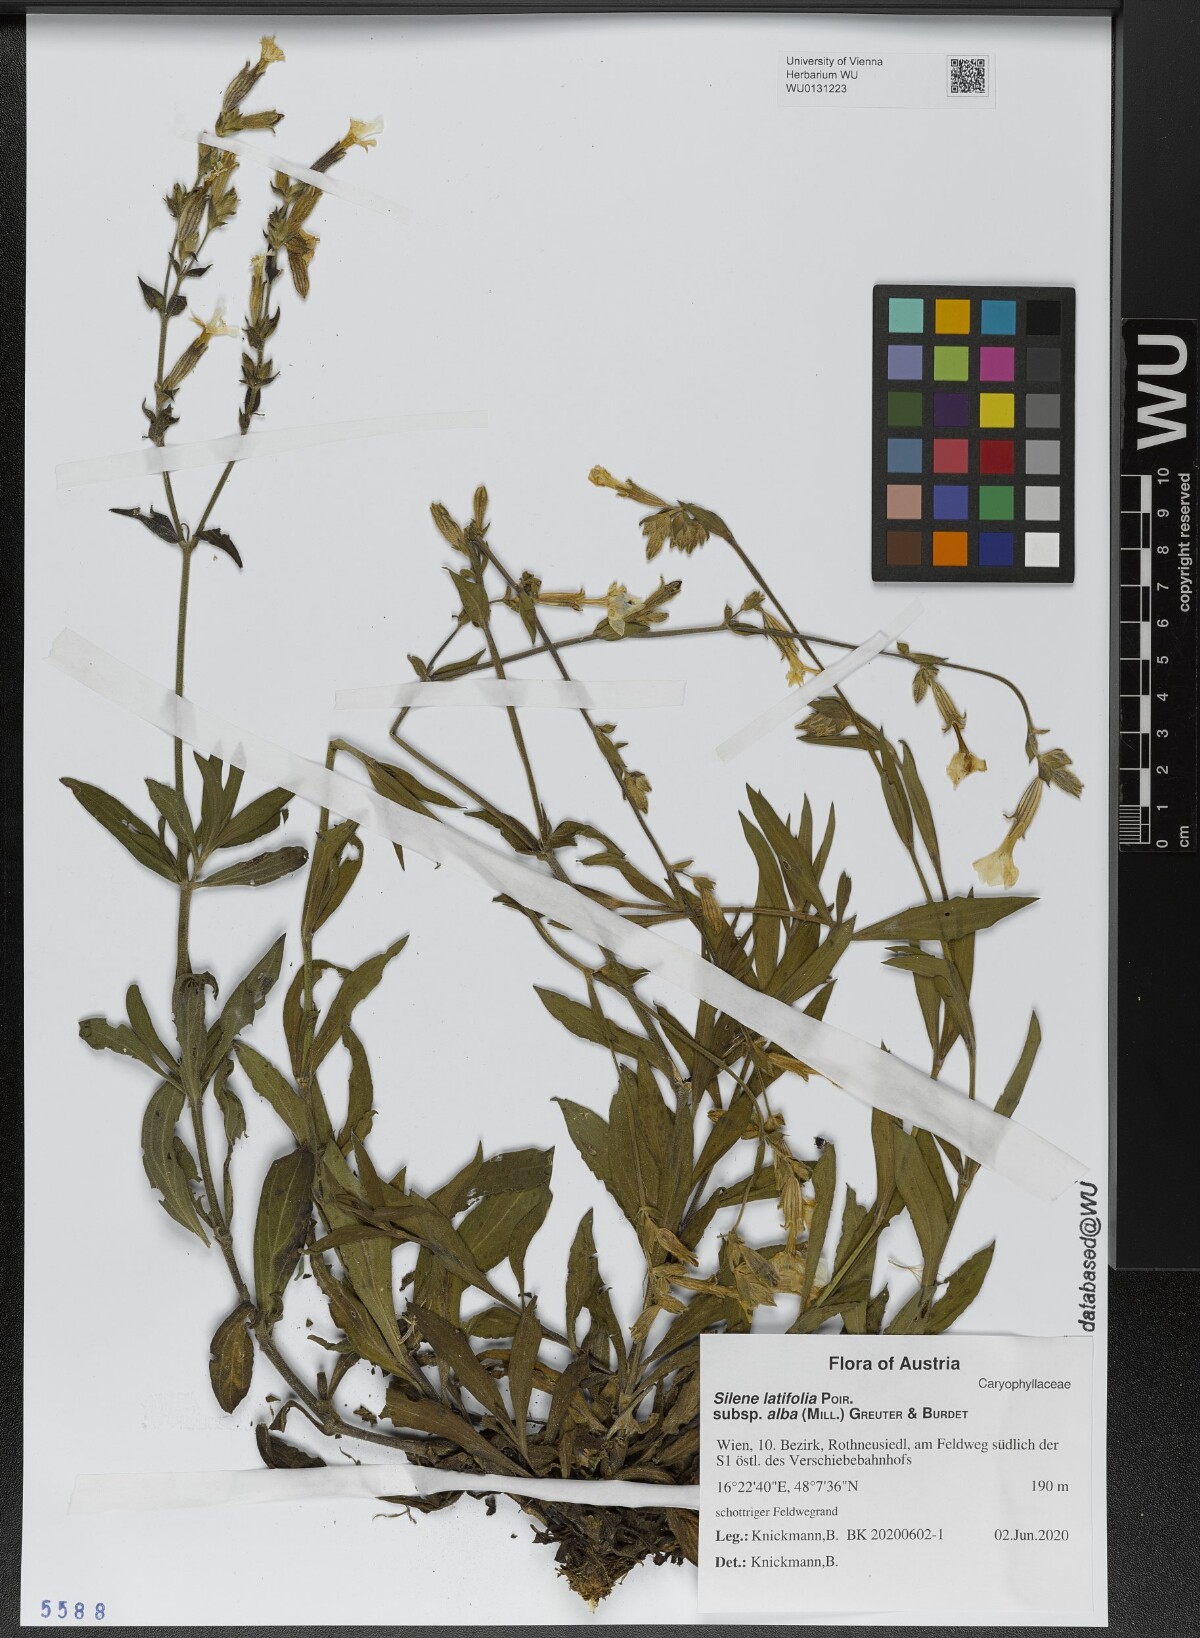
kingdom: Plantae
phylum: Tracheophyta
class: Magnoliopsida
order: Caryophyllales
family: Caryophyllaceae
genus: Silene
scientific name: Silene latifolia
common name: White campion
